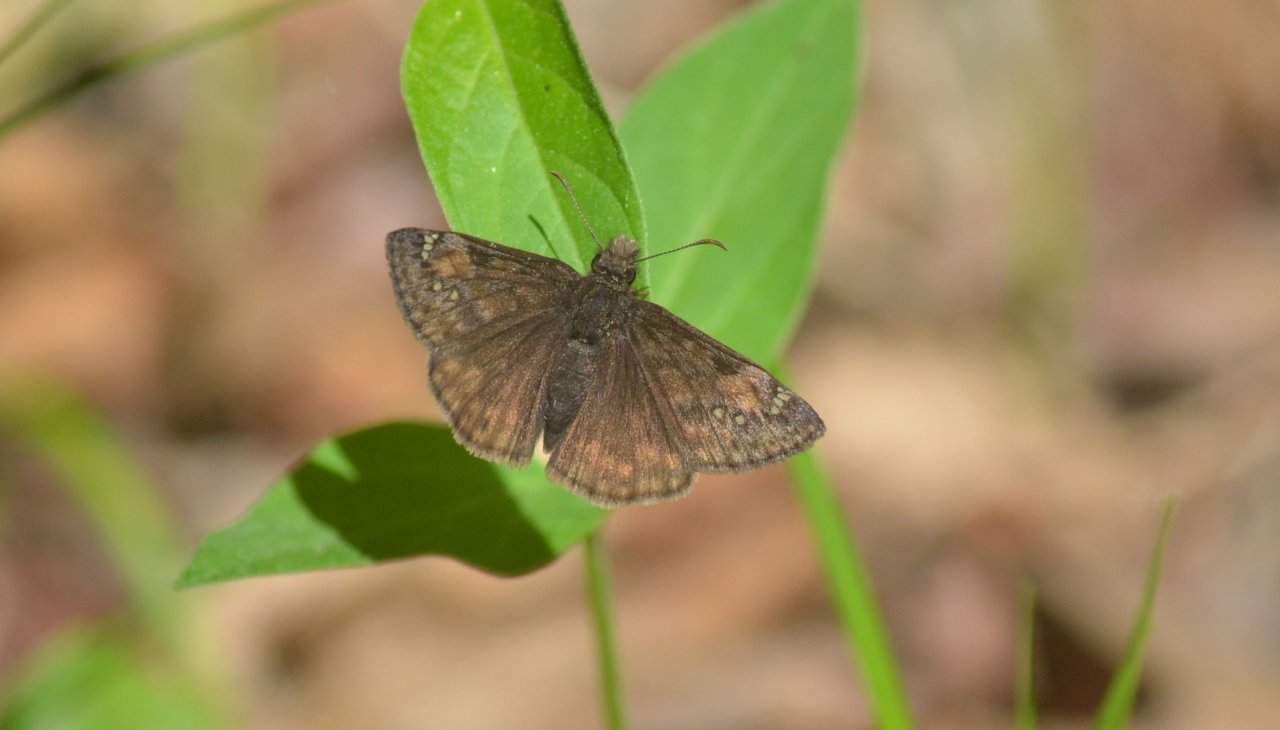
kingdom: Animalia
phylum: Arthropoda
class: Insecta
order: Lepidoptera
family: Hesperiidae
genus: Gesta
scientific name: Gesta
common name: Wild Indigo Duskywing
